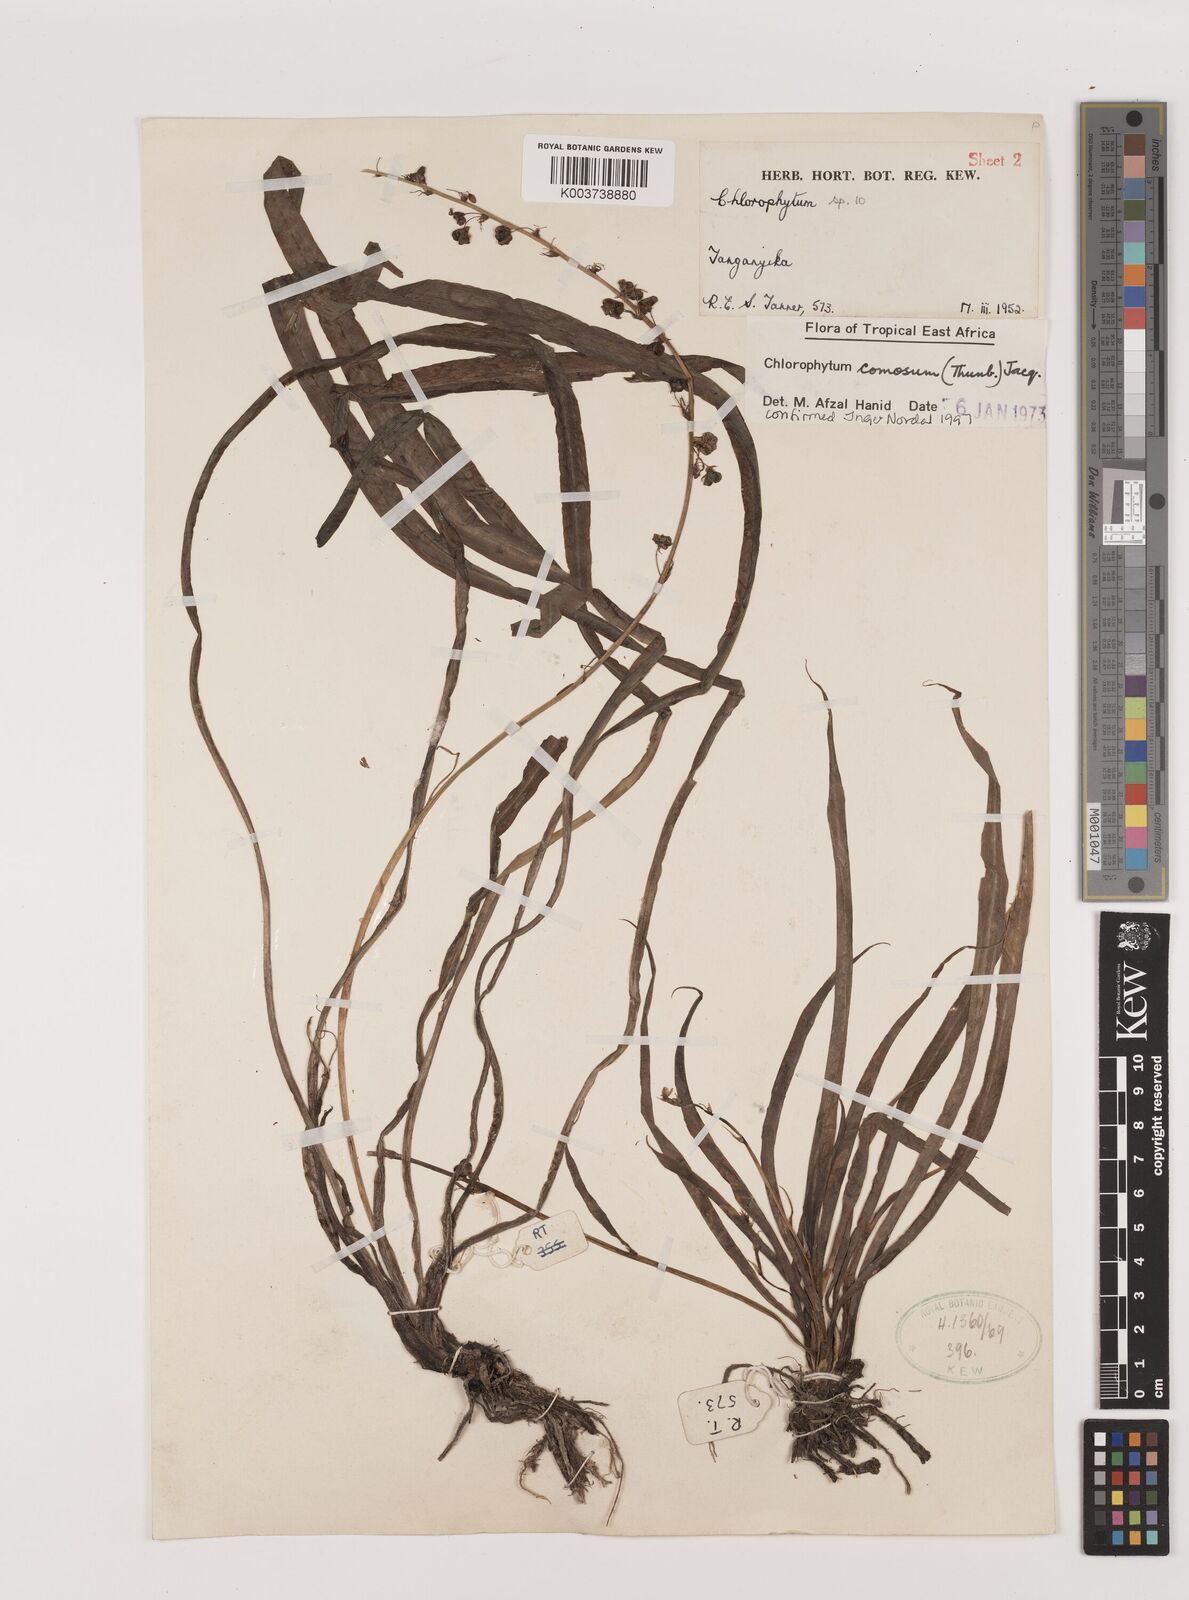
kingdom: Plantae
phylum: Tracheophyta
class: Liliopsida
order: Asparagales
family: Asparagaceae
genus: Chlorophytum
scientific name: Chlorophytum comosum
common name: Spider plant
